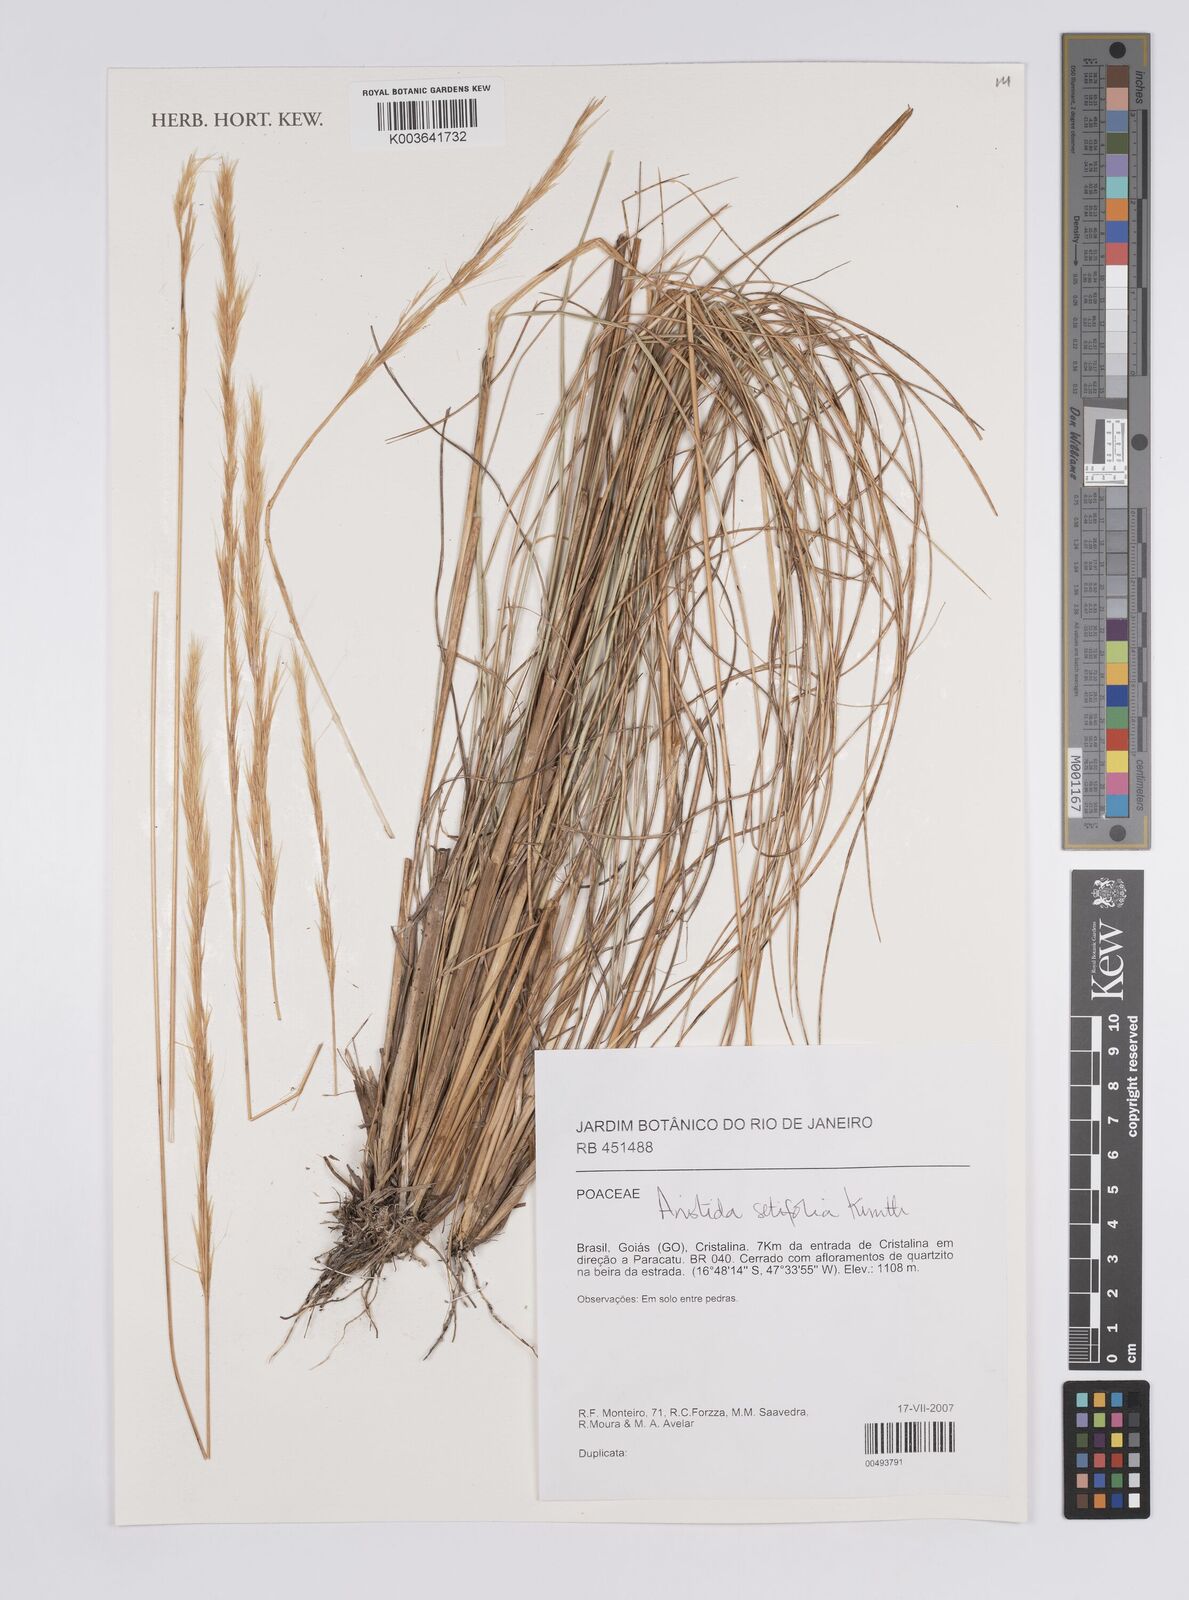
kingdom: Plantae
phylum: Tracheophyta
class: Liliopsida
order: Poales
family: Poaceae
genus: Aristida
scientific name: Aristida setifolia
